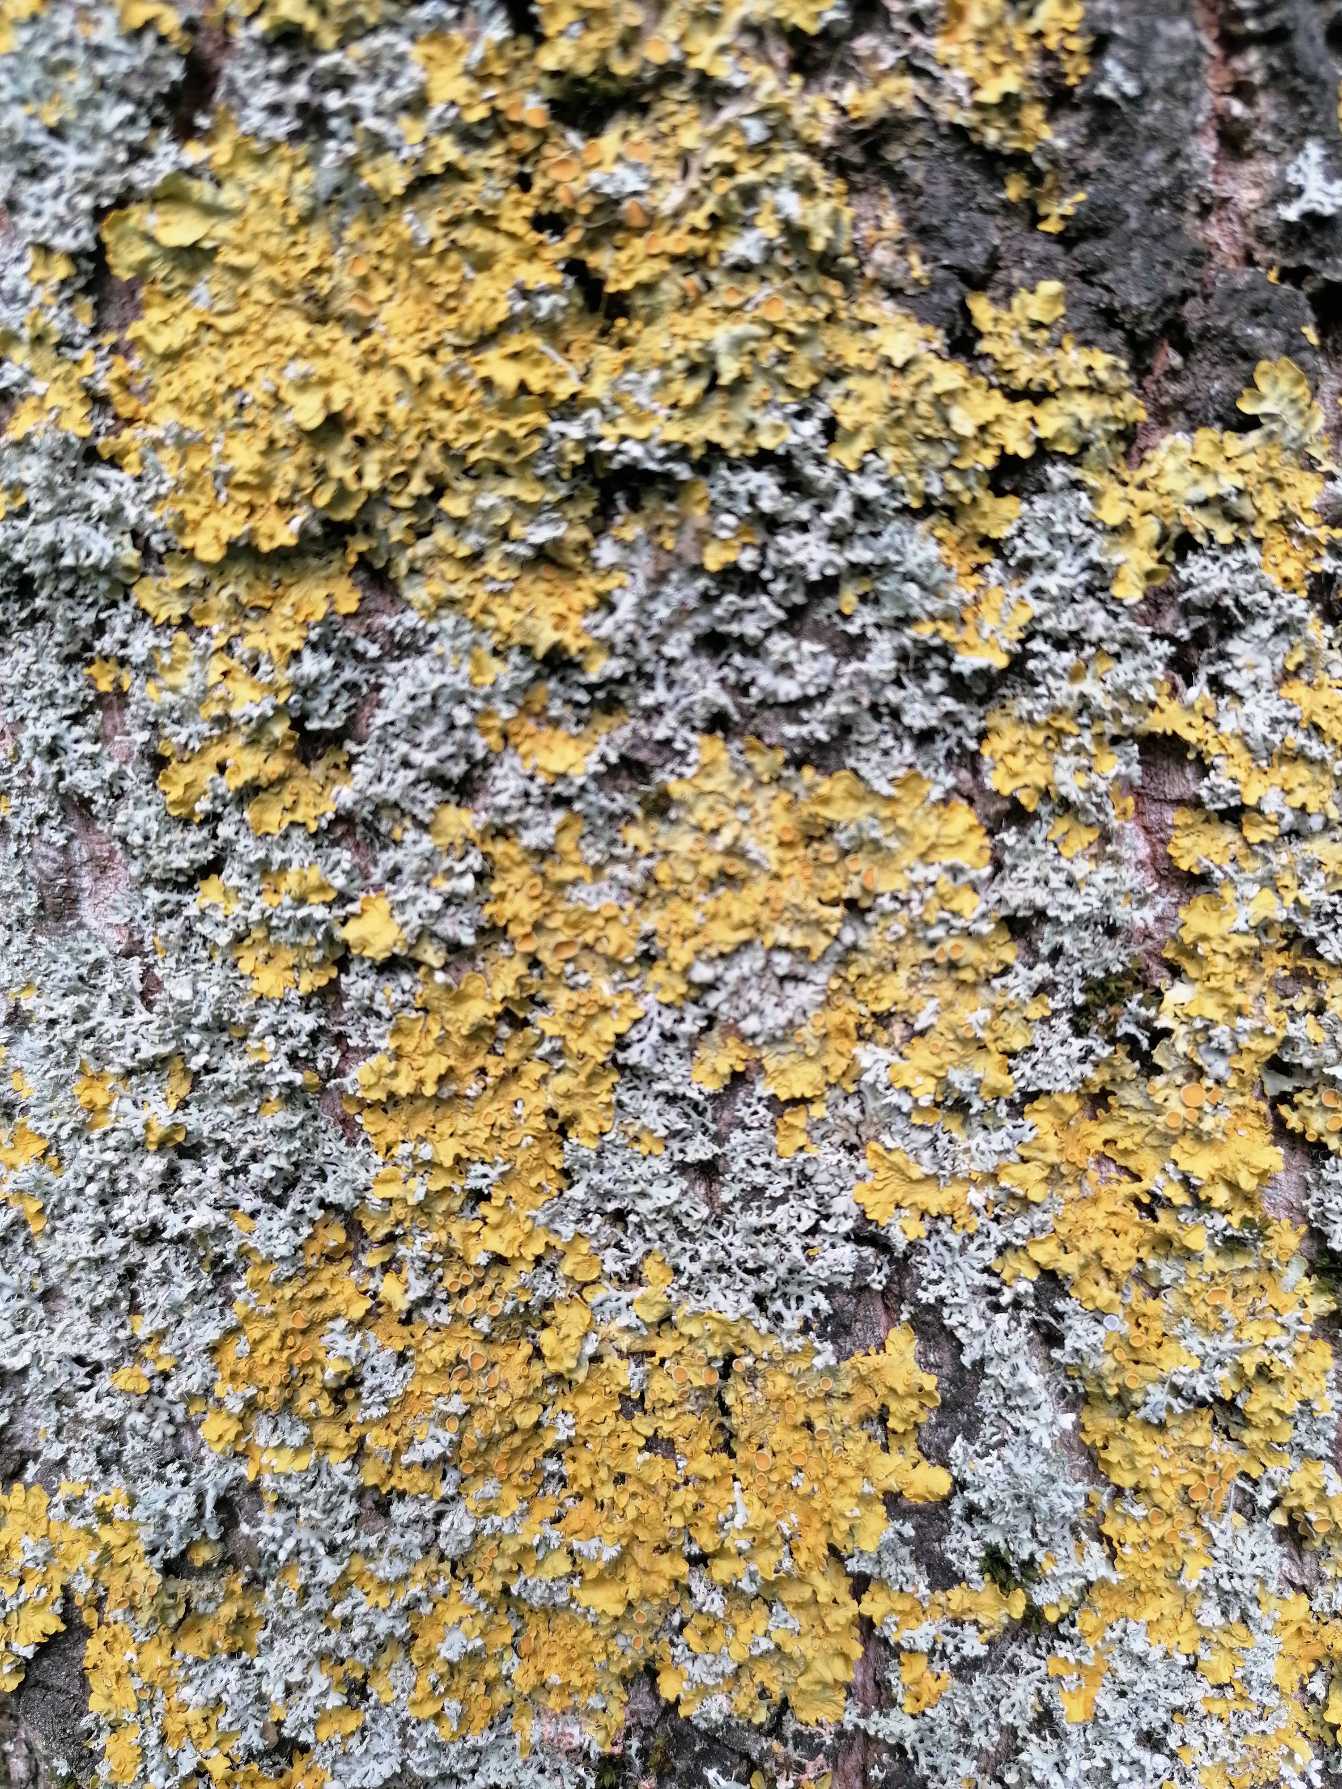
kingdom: Fungi
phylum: Ascomycota
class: Lecanoromycetes
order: Teloschistales
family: Teloschistaceae
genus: Xanthoria
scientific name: Xanthoria parietina
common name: Almindelig væggelav
